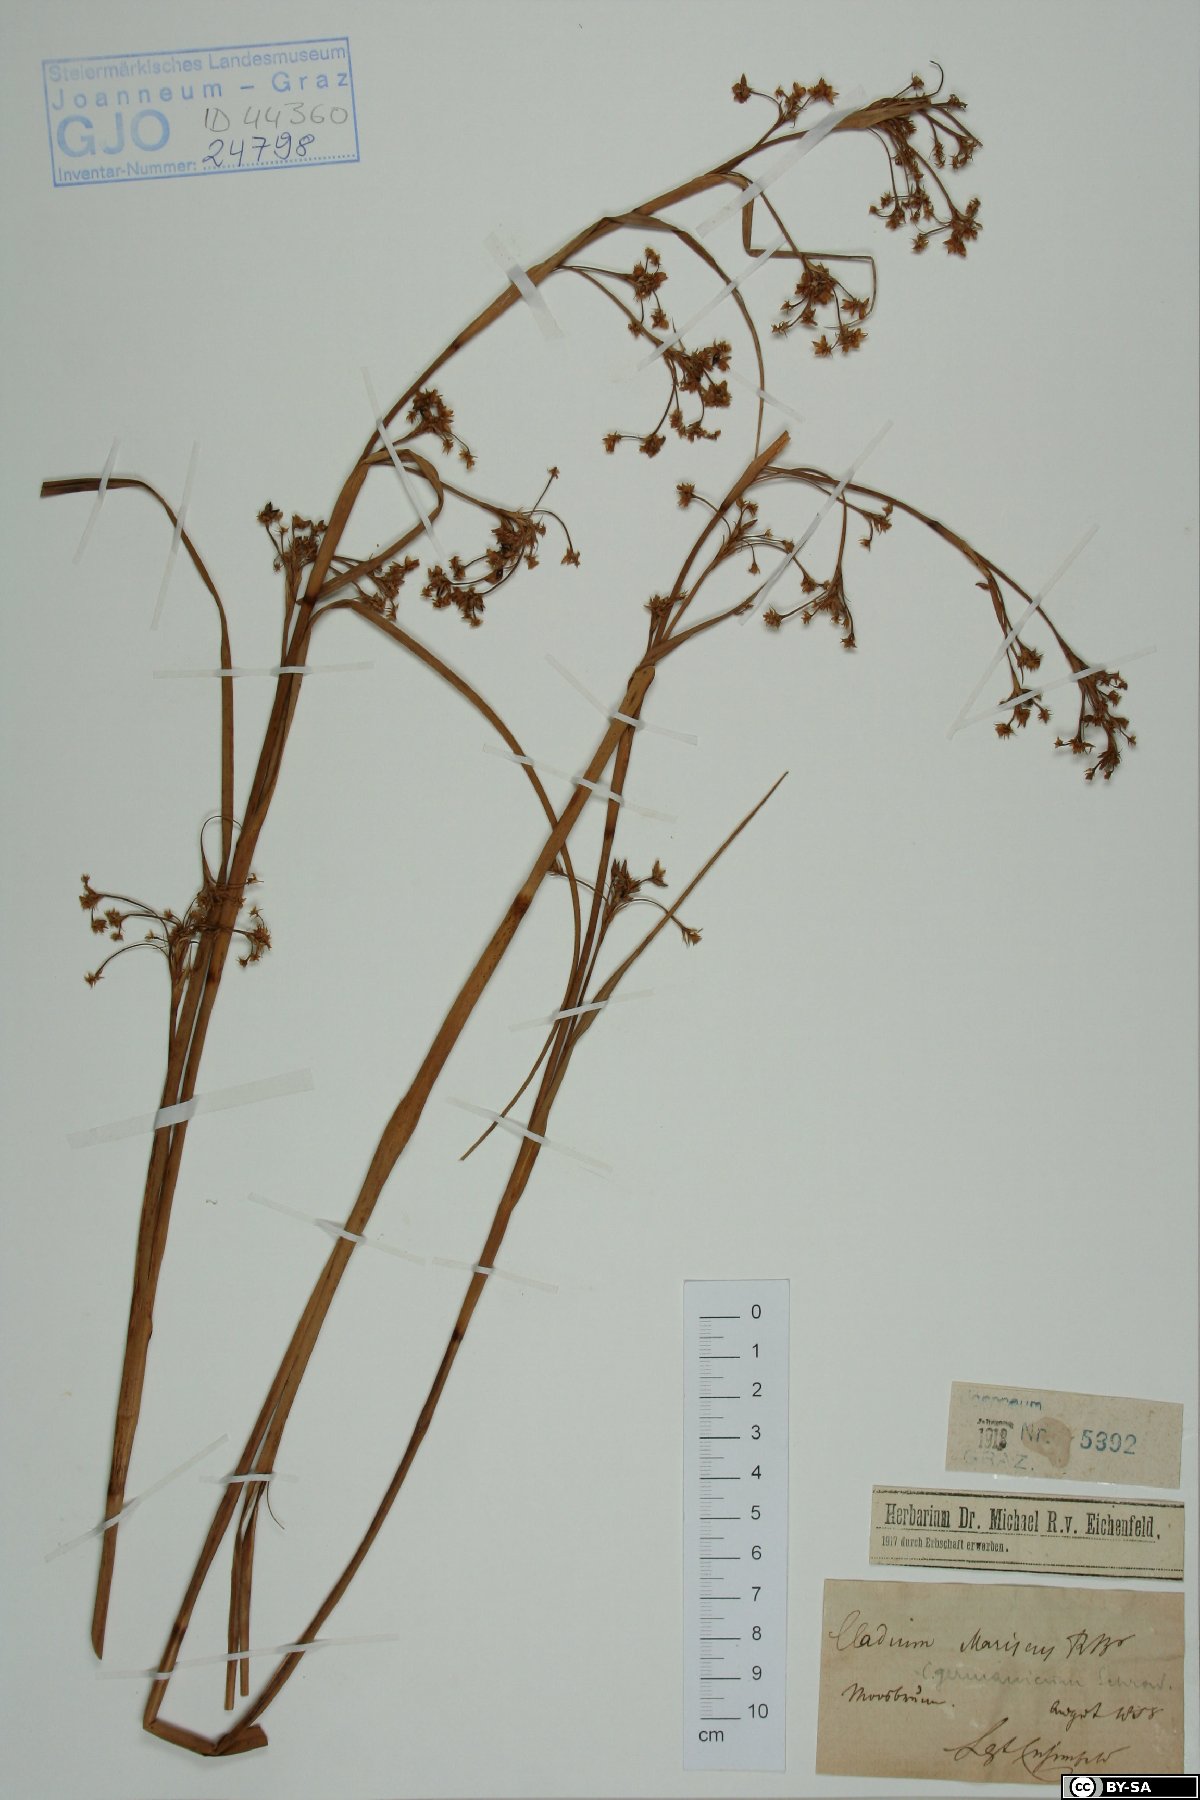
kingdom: Plantae
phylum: Tracheophyta
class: Liliopsida
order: Poales
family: Cyperaceae
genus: Cladium
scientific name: Cladium mariscus
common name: Great fen-sedge
